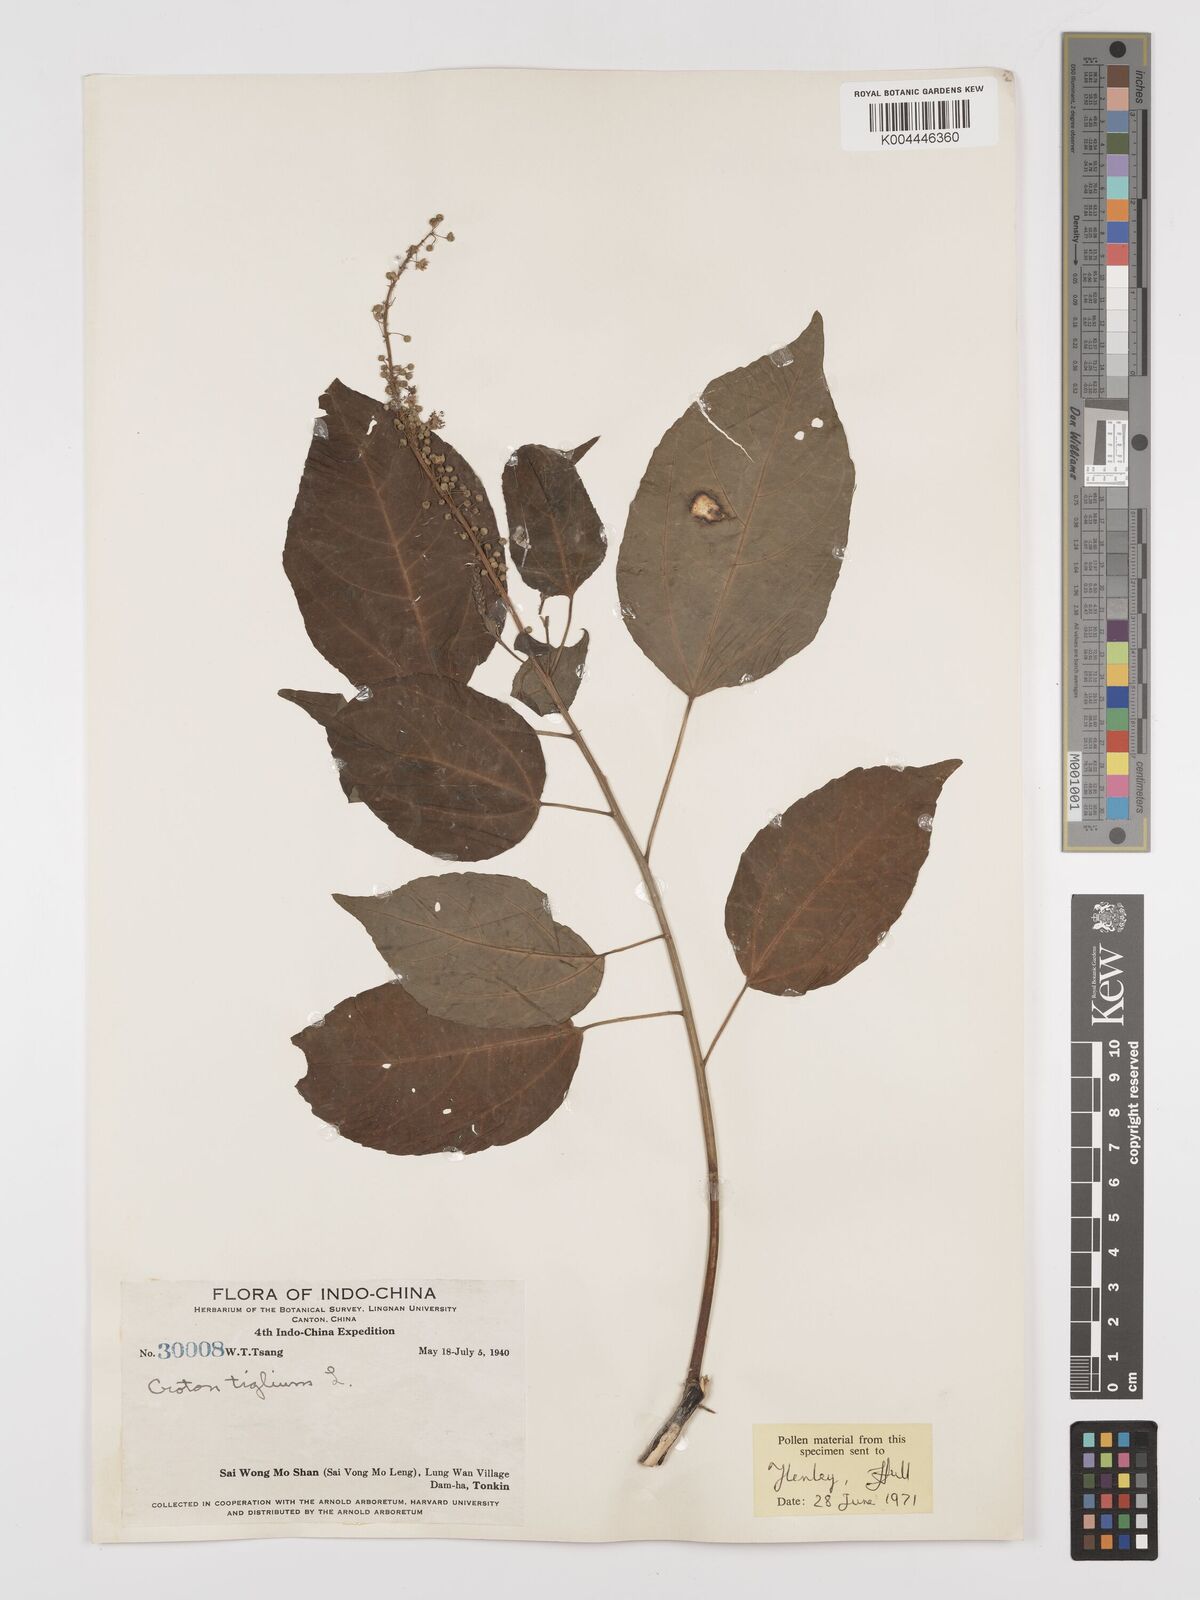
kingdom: Plantae
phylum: Tracheophyta
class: Magnoliopsida
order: Malpighiales
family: Euphorbiaceae
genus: Croton
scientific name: Croton tiglium
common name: Purging croton
